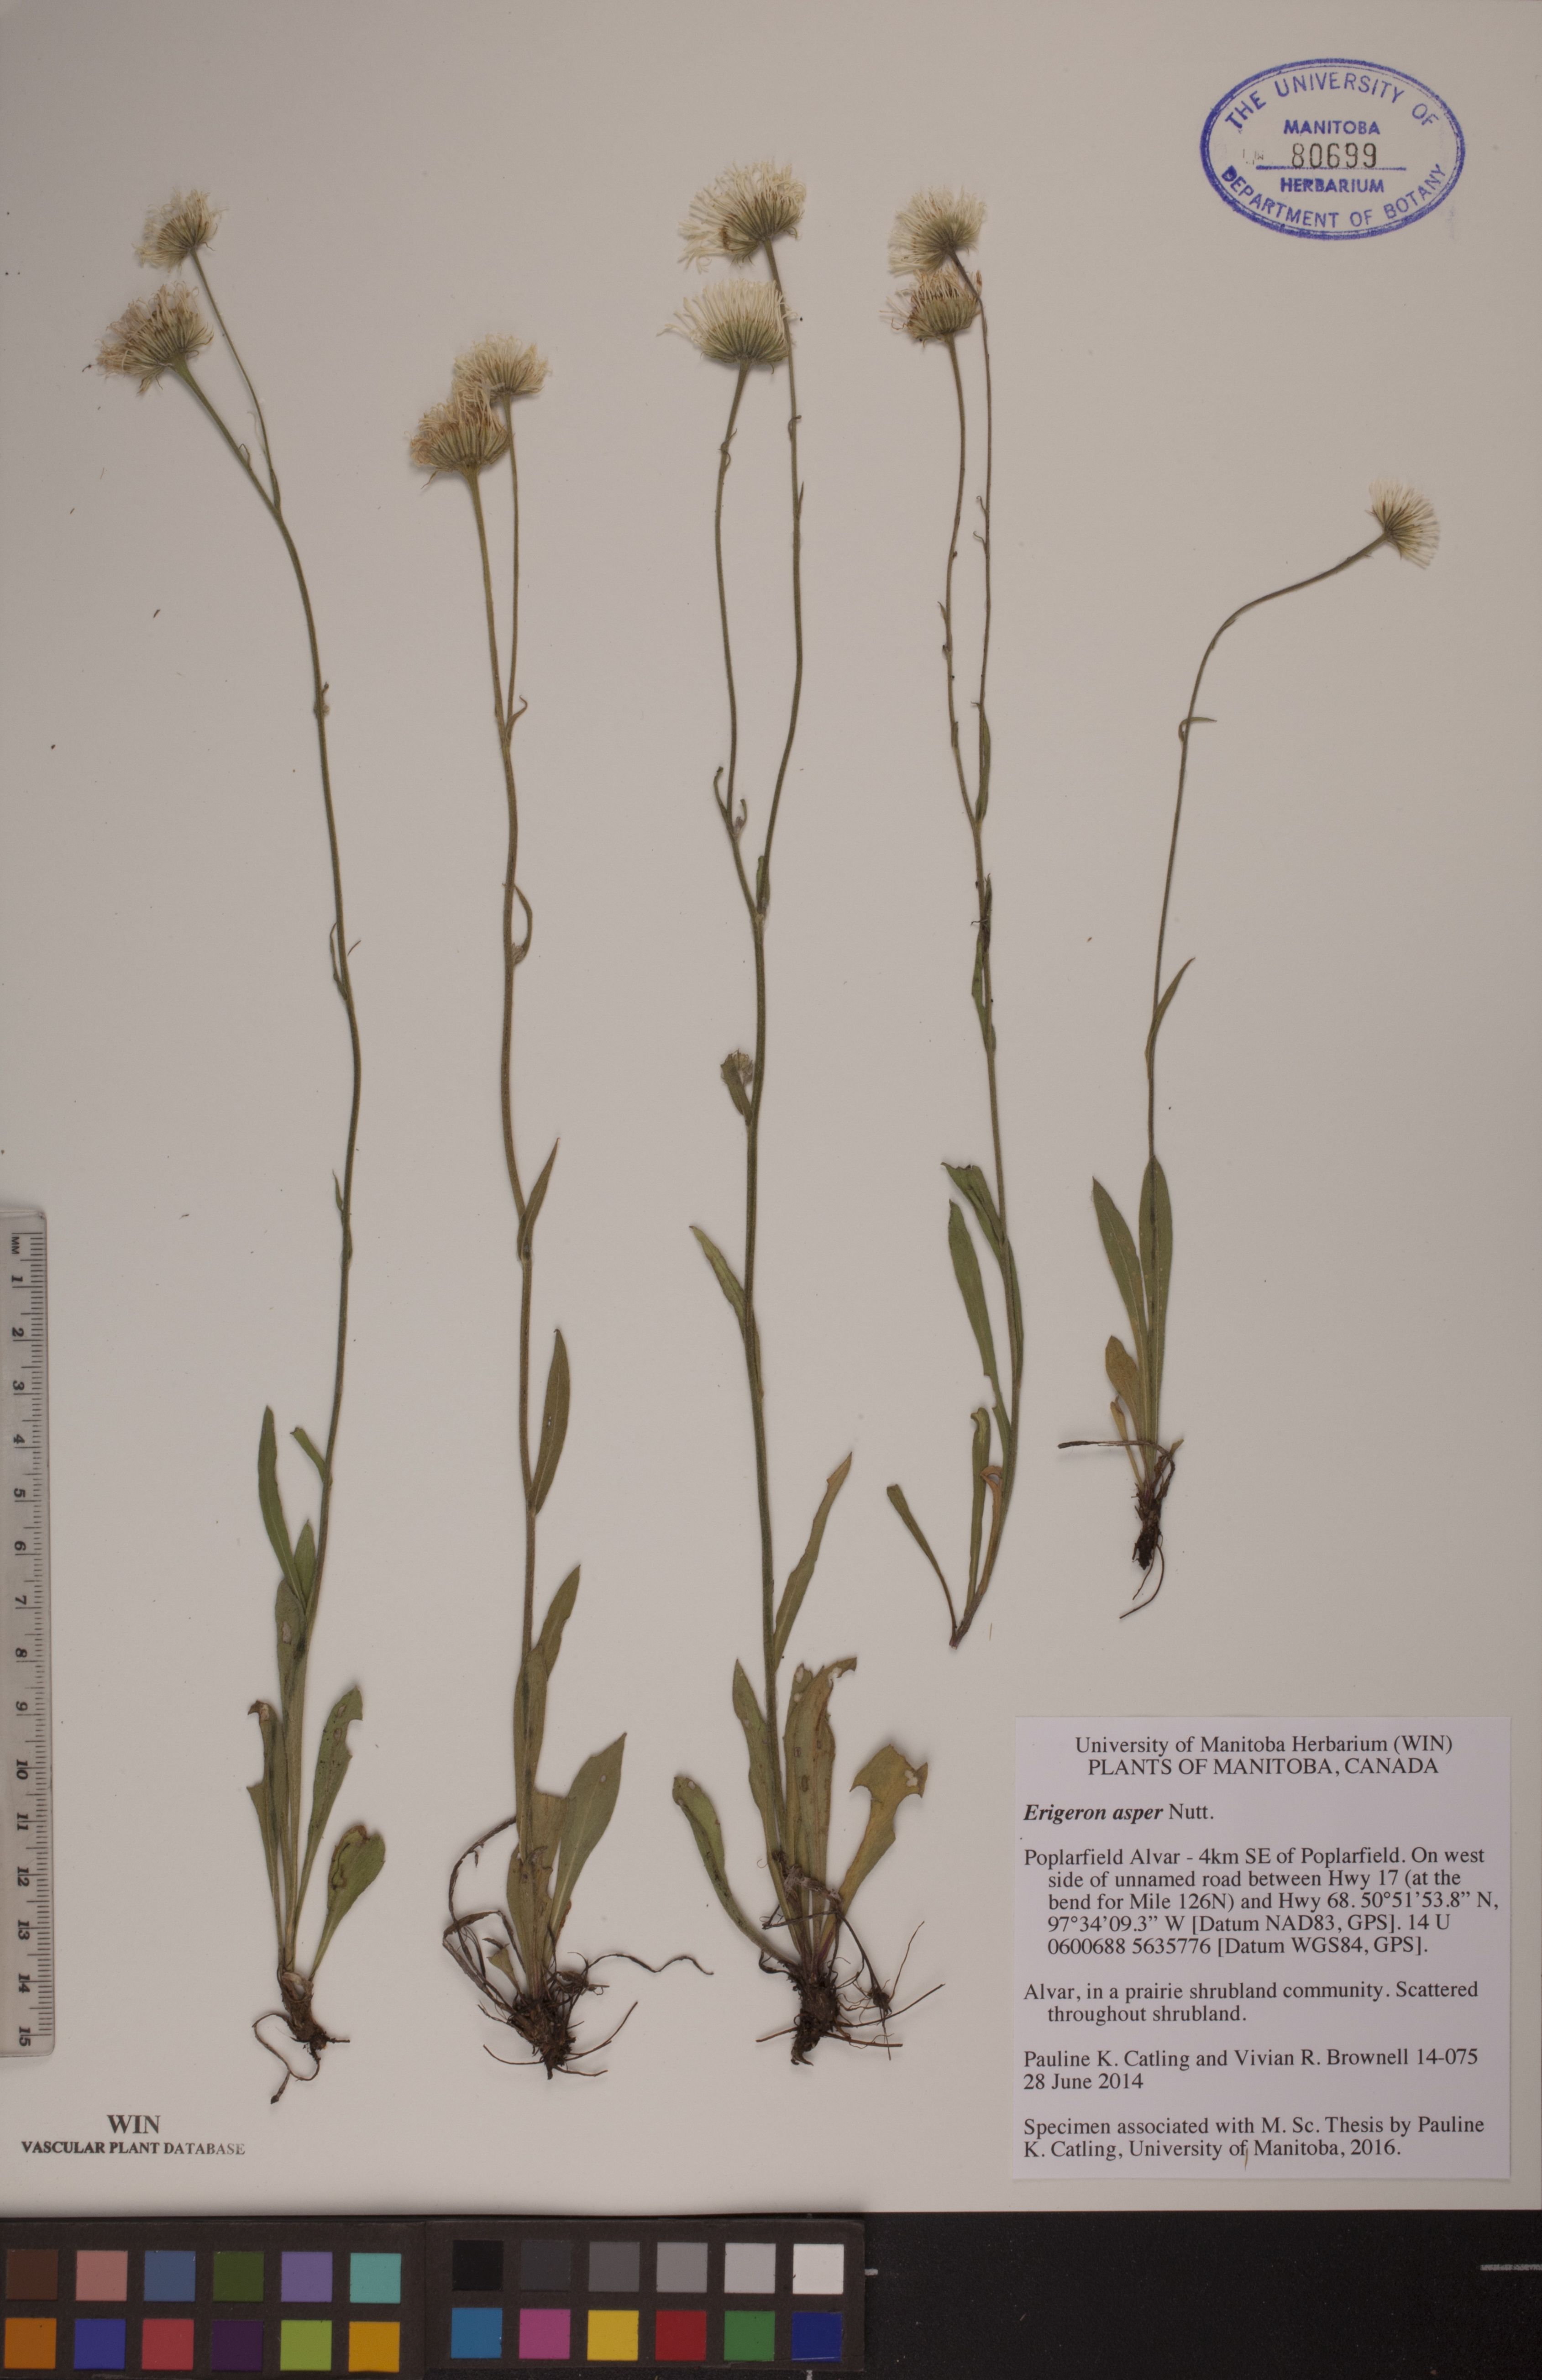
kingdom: Plantae
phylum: Tracheophyta
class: Magnoliopsida
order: Asterales
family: Asteraceae
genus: Erigeron
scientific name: Erigeron glabellus
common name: Smooth fleabane
